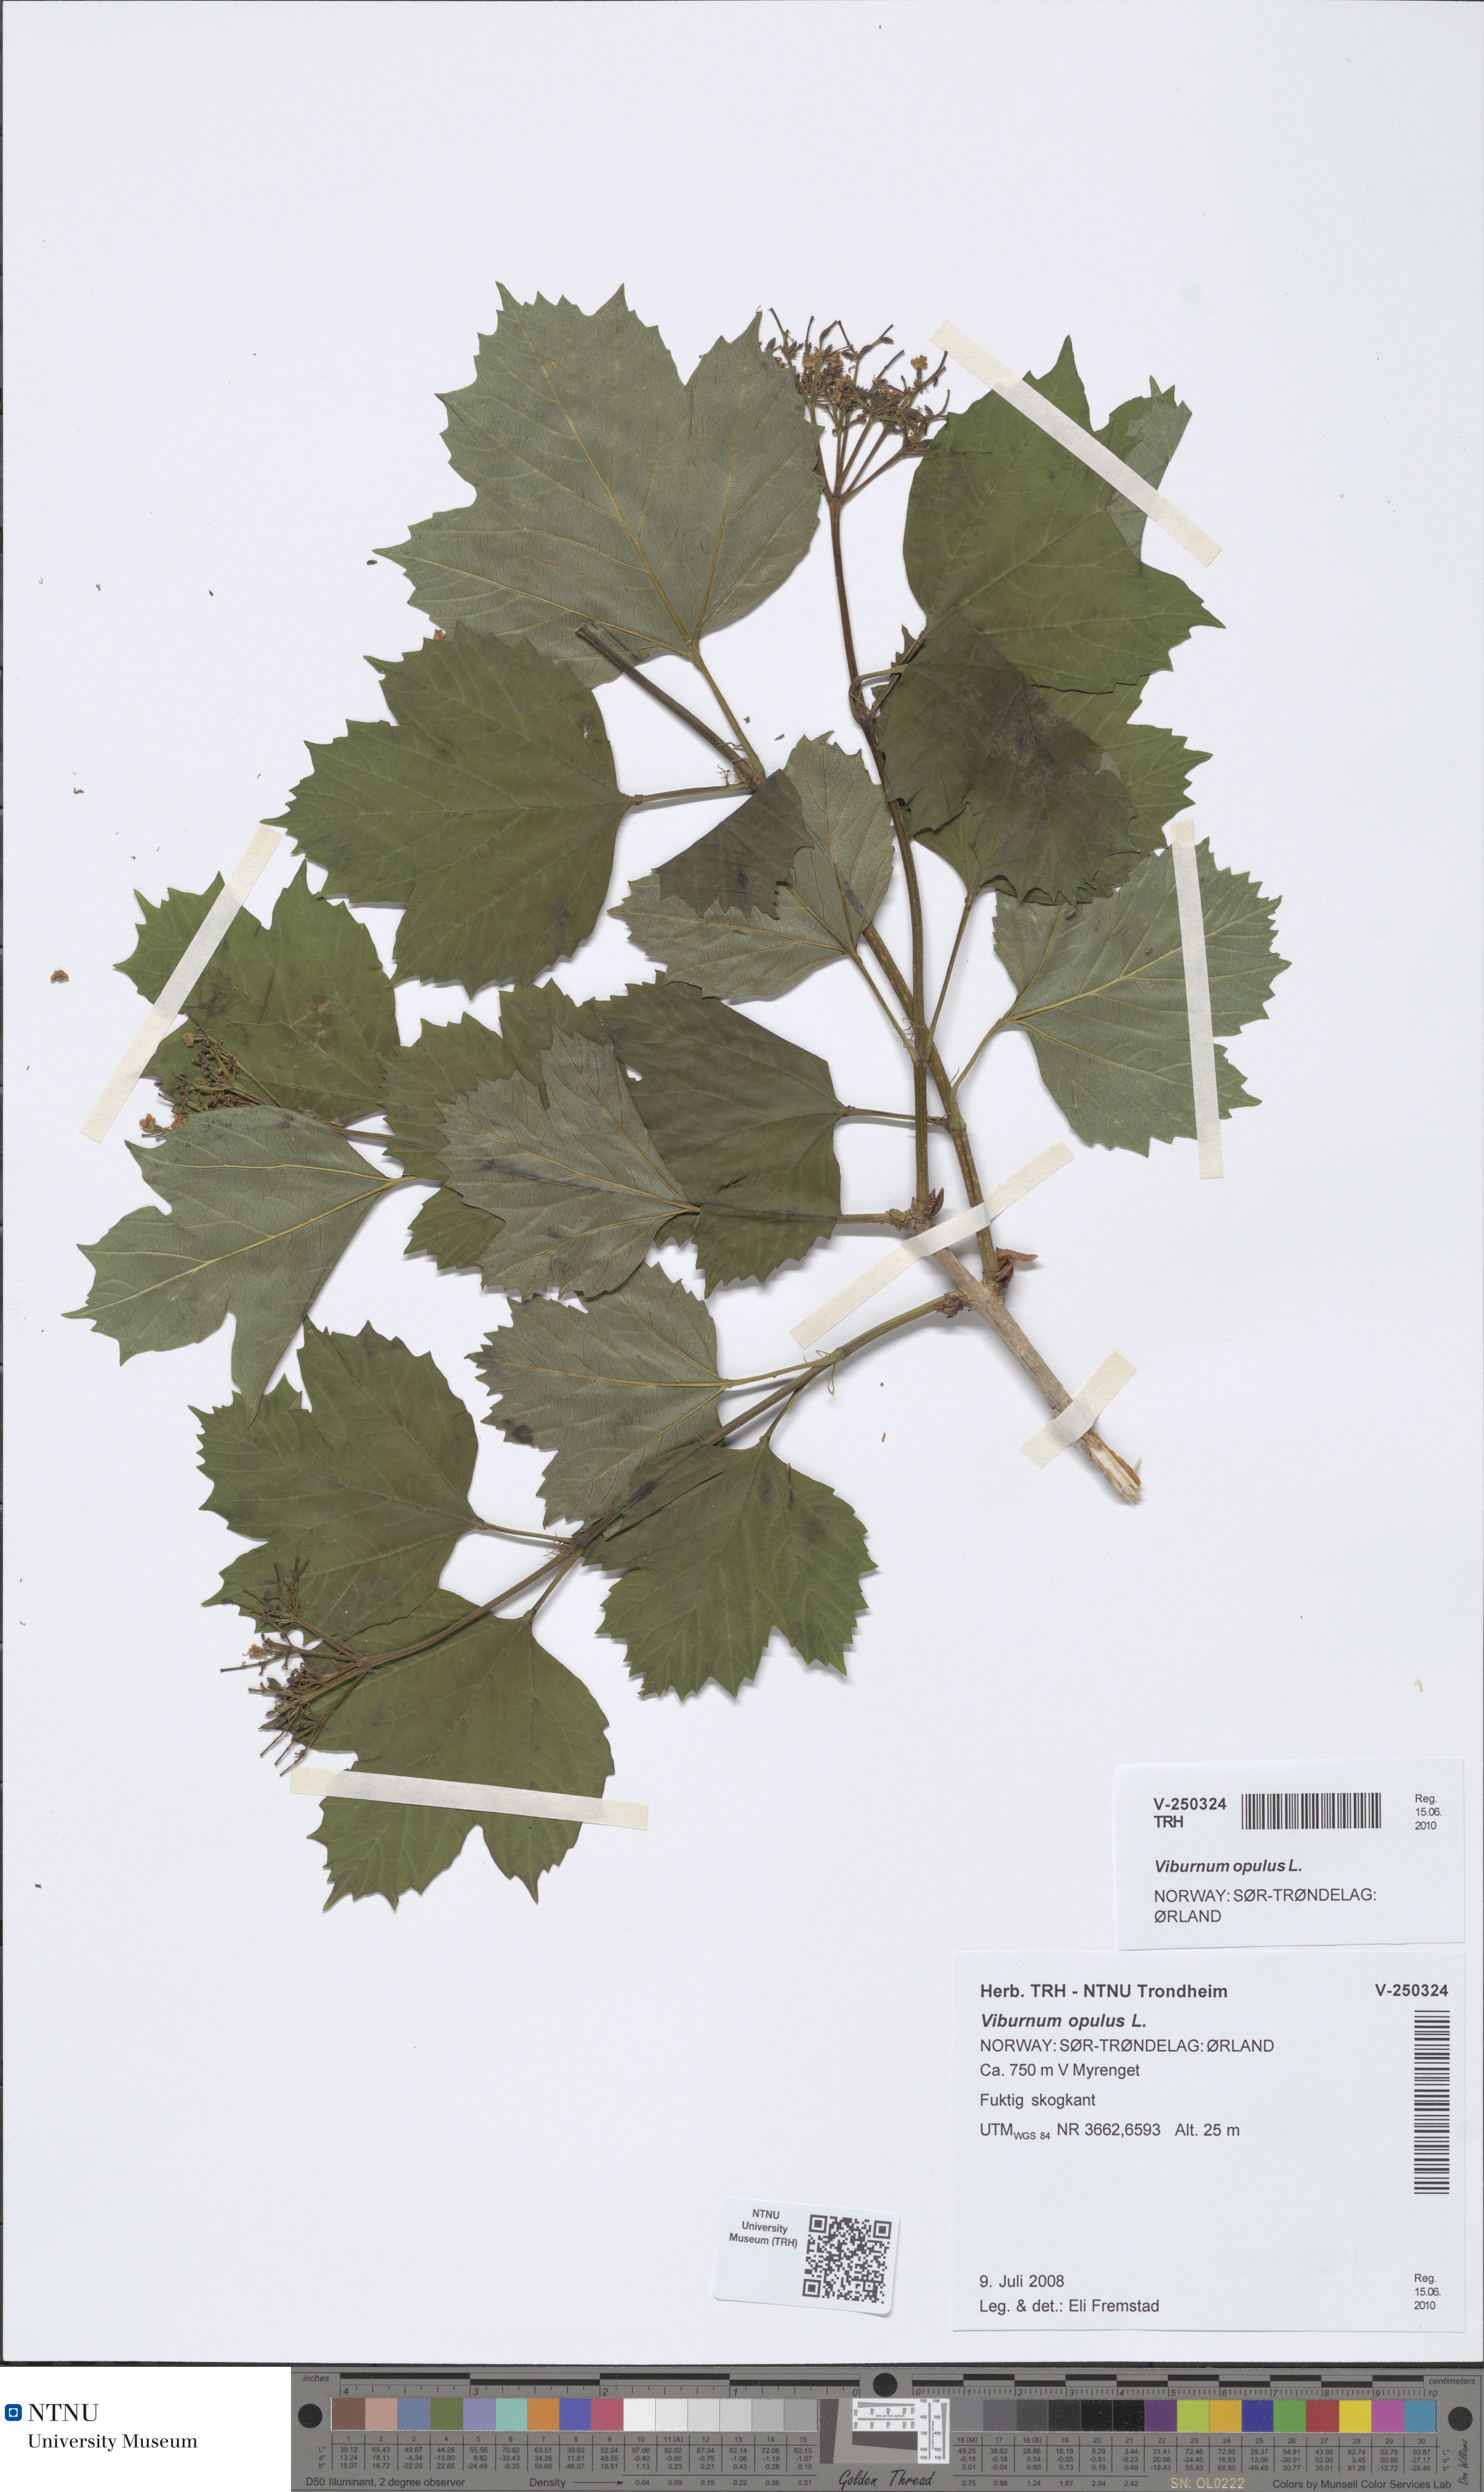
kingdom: Plantae
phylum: Tracheophyta
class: Magnoliopsida
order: Dipsacales
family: Viburnaceae
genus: Viburnum
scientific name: Viburnum opulus
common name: Guelder-rose
